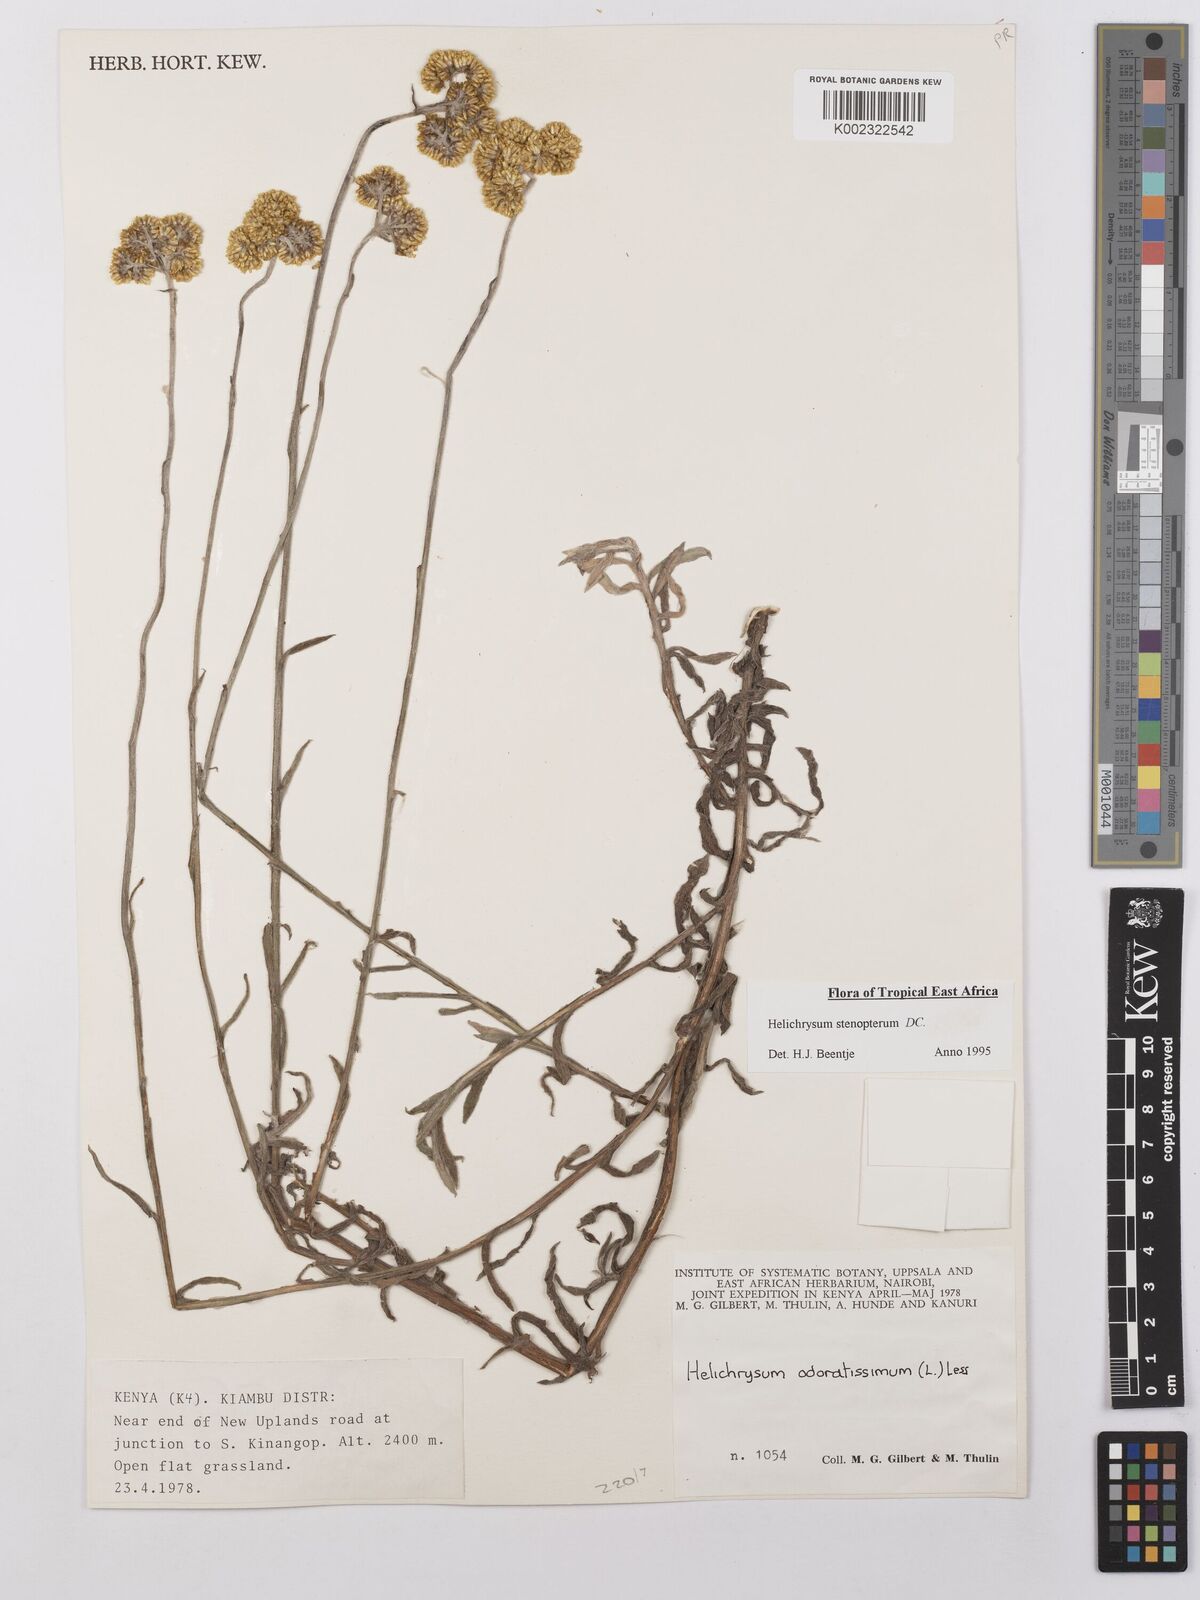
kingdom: Plantae
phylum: Tracheophyta
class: Magnoliopsida
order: Asterales
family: Asteraceae
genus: Helichrysum
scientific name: Helichrysum stenopterum
